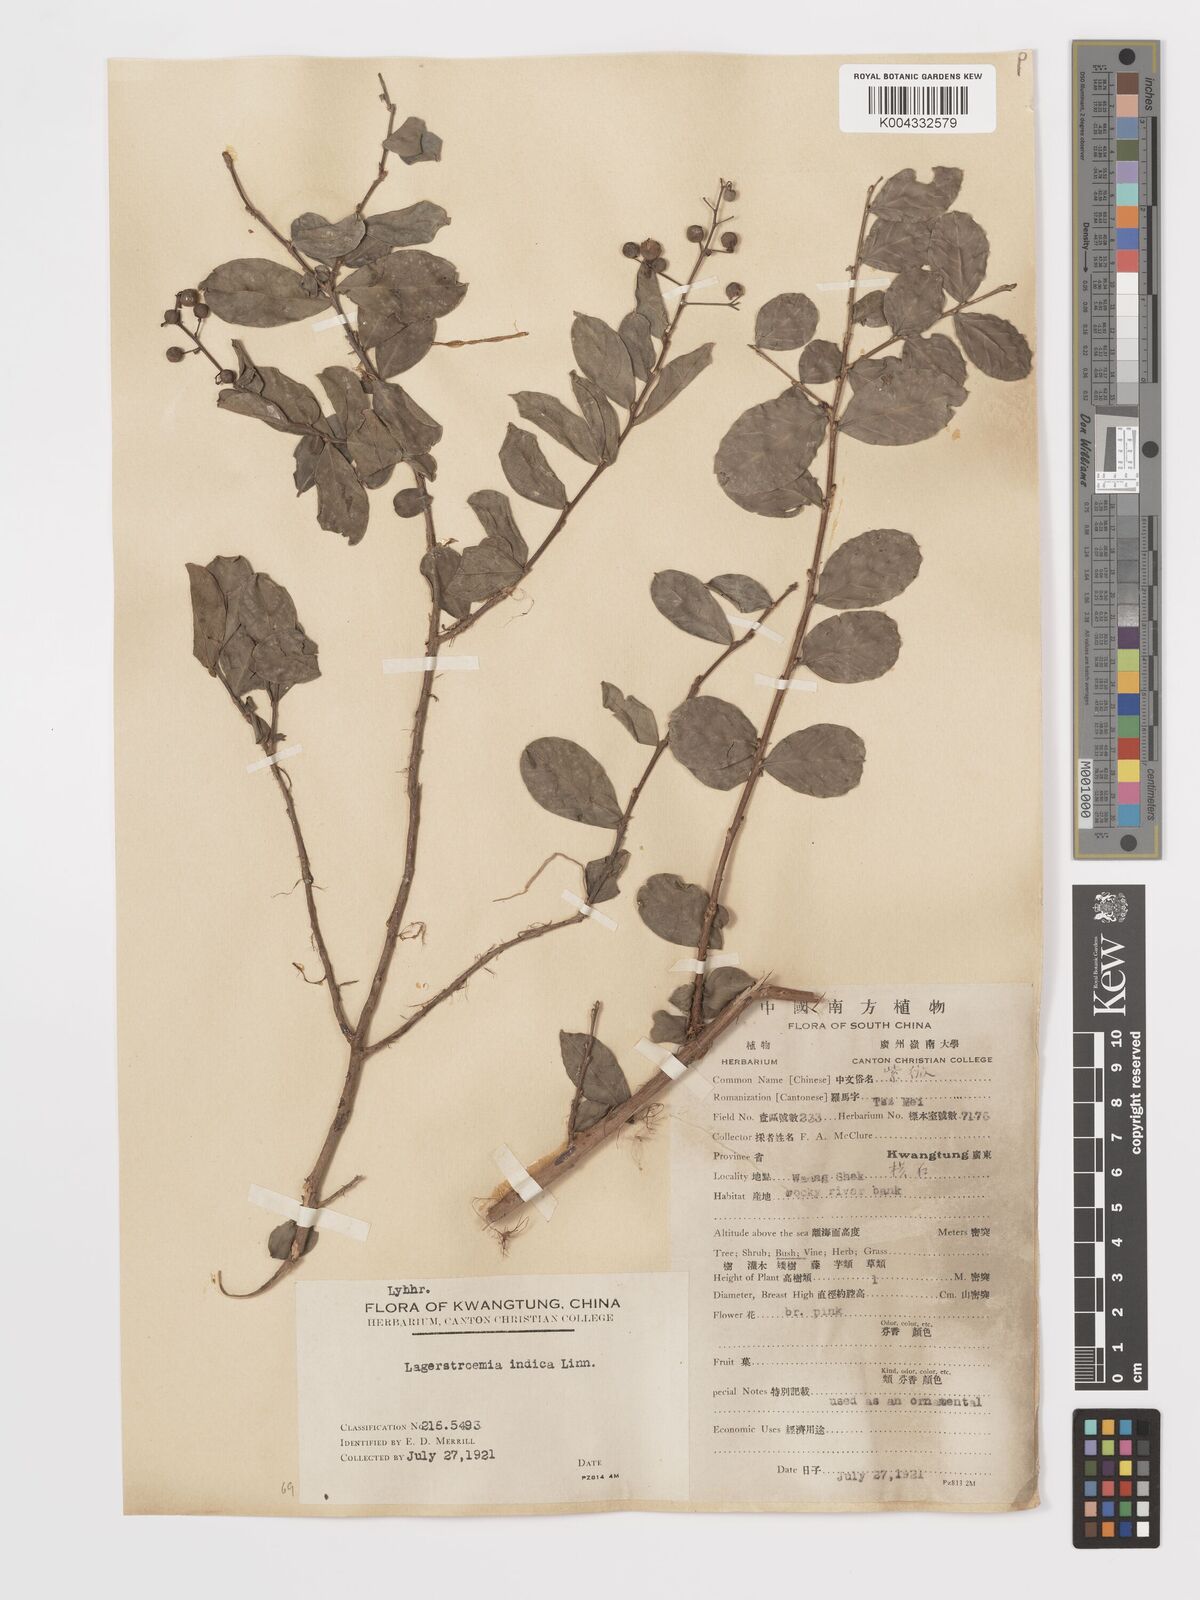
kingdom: Plantae
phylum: Tracheophyta
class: Magnoliopsida
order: Myrtales
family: Lythraceae
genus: Lagerstroemia
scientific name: Lagerstroemia indica
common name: Crape-myrtle
